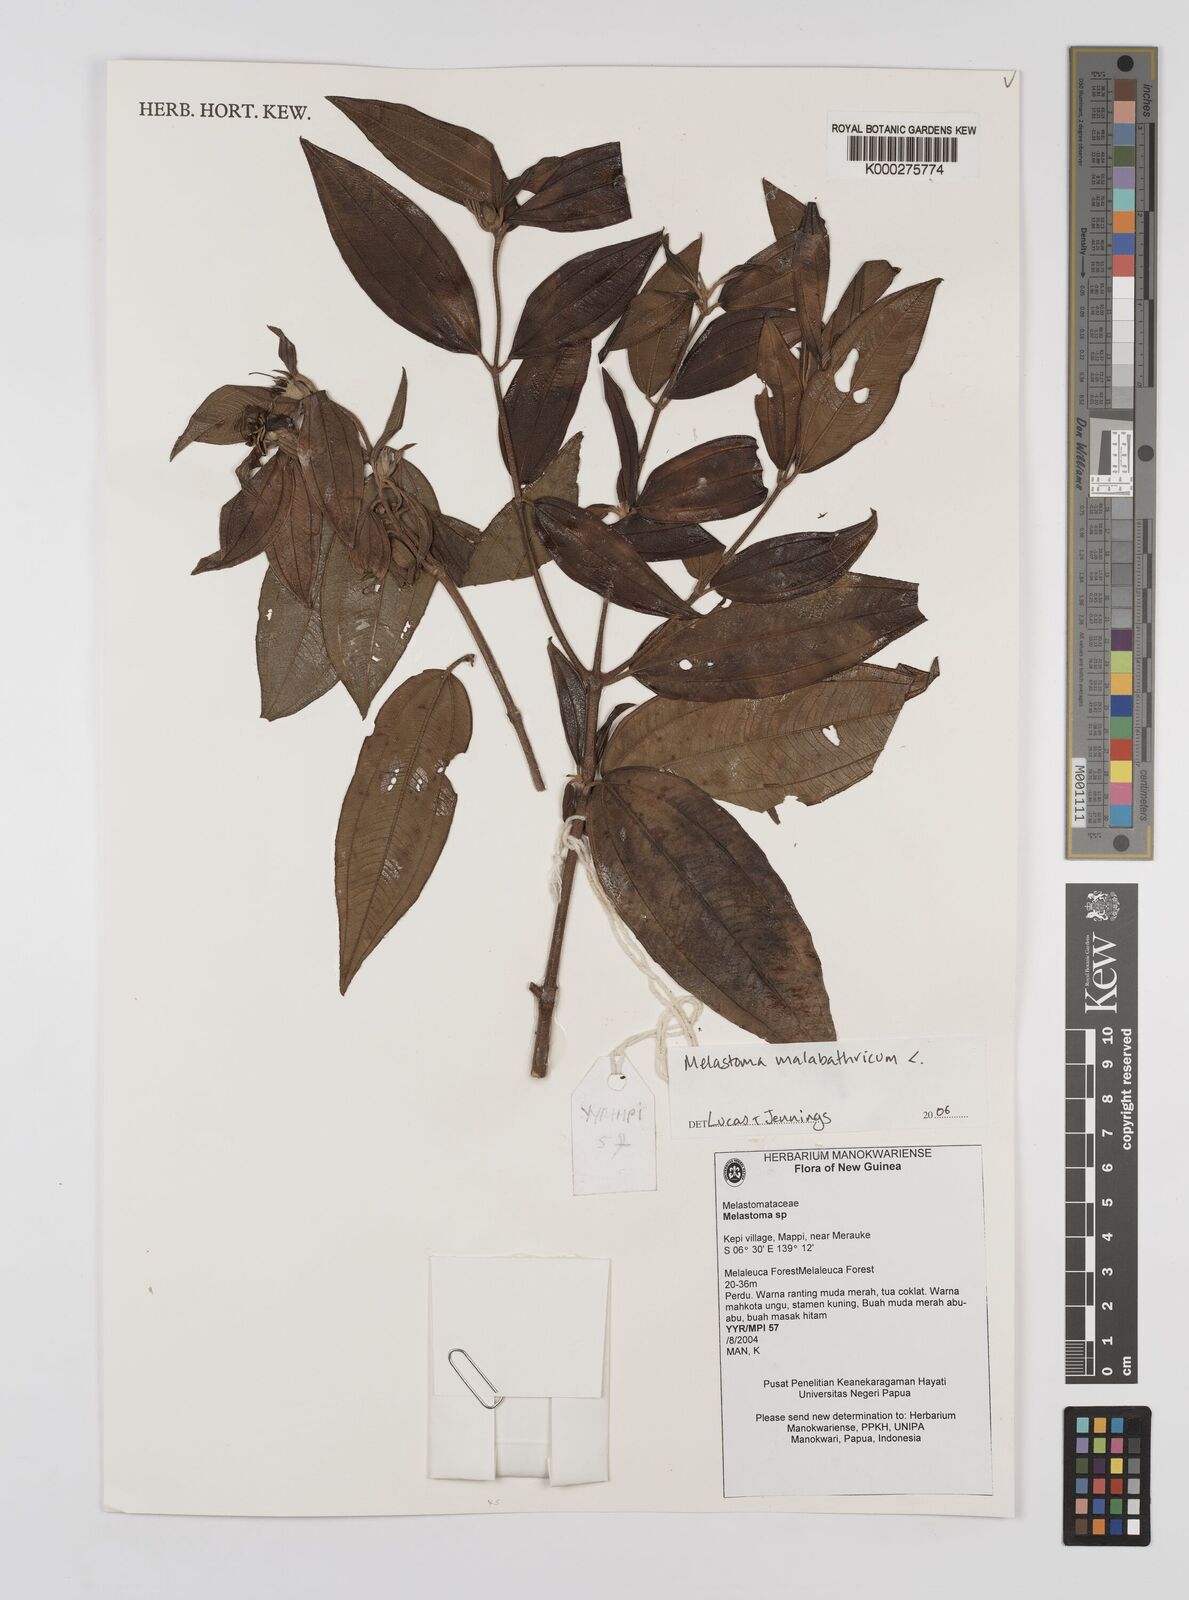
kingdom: Plantae
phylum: Tracheophyta
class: Magnoliopsida
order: Myrtales
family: Melastomataceae
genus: Melastoma
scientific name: Melastoma malabathricum
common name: Indian-rhododendron
